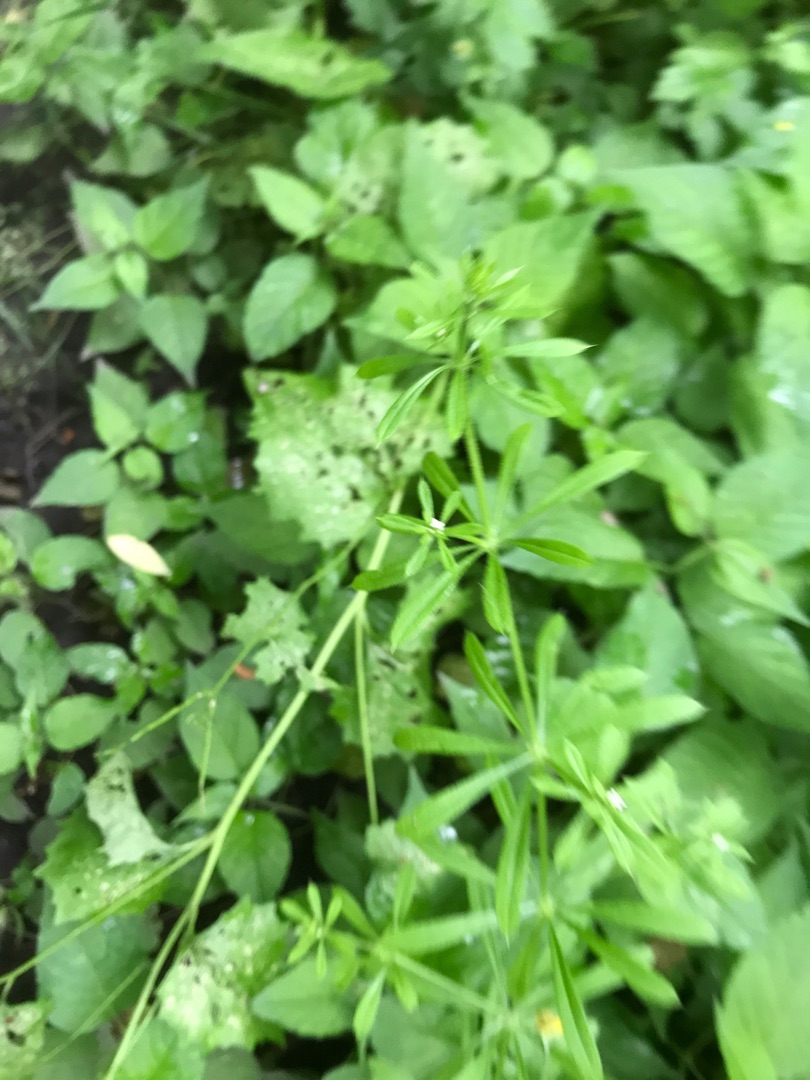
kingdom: Plantae
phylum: Tracheophyta
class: Magnoliopsida
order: Gentianales
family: Rubiaceae
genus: Galium
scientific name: Galium aparine
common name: Burre-snerre
